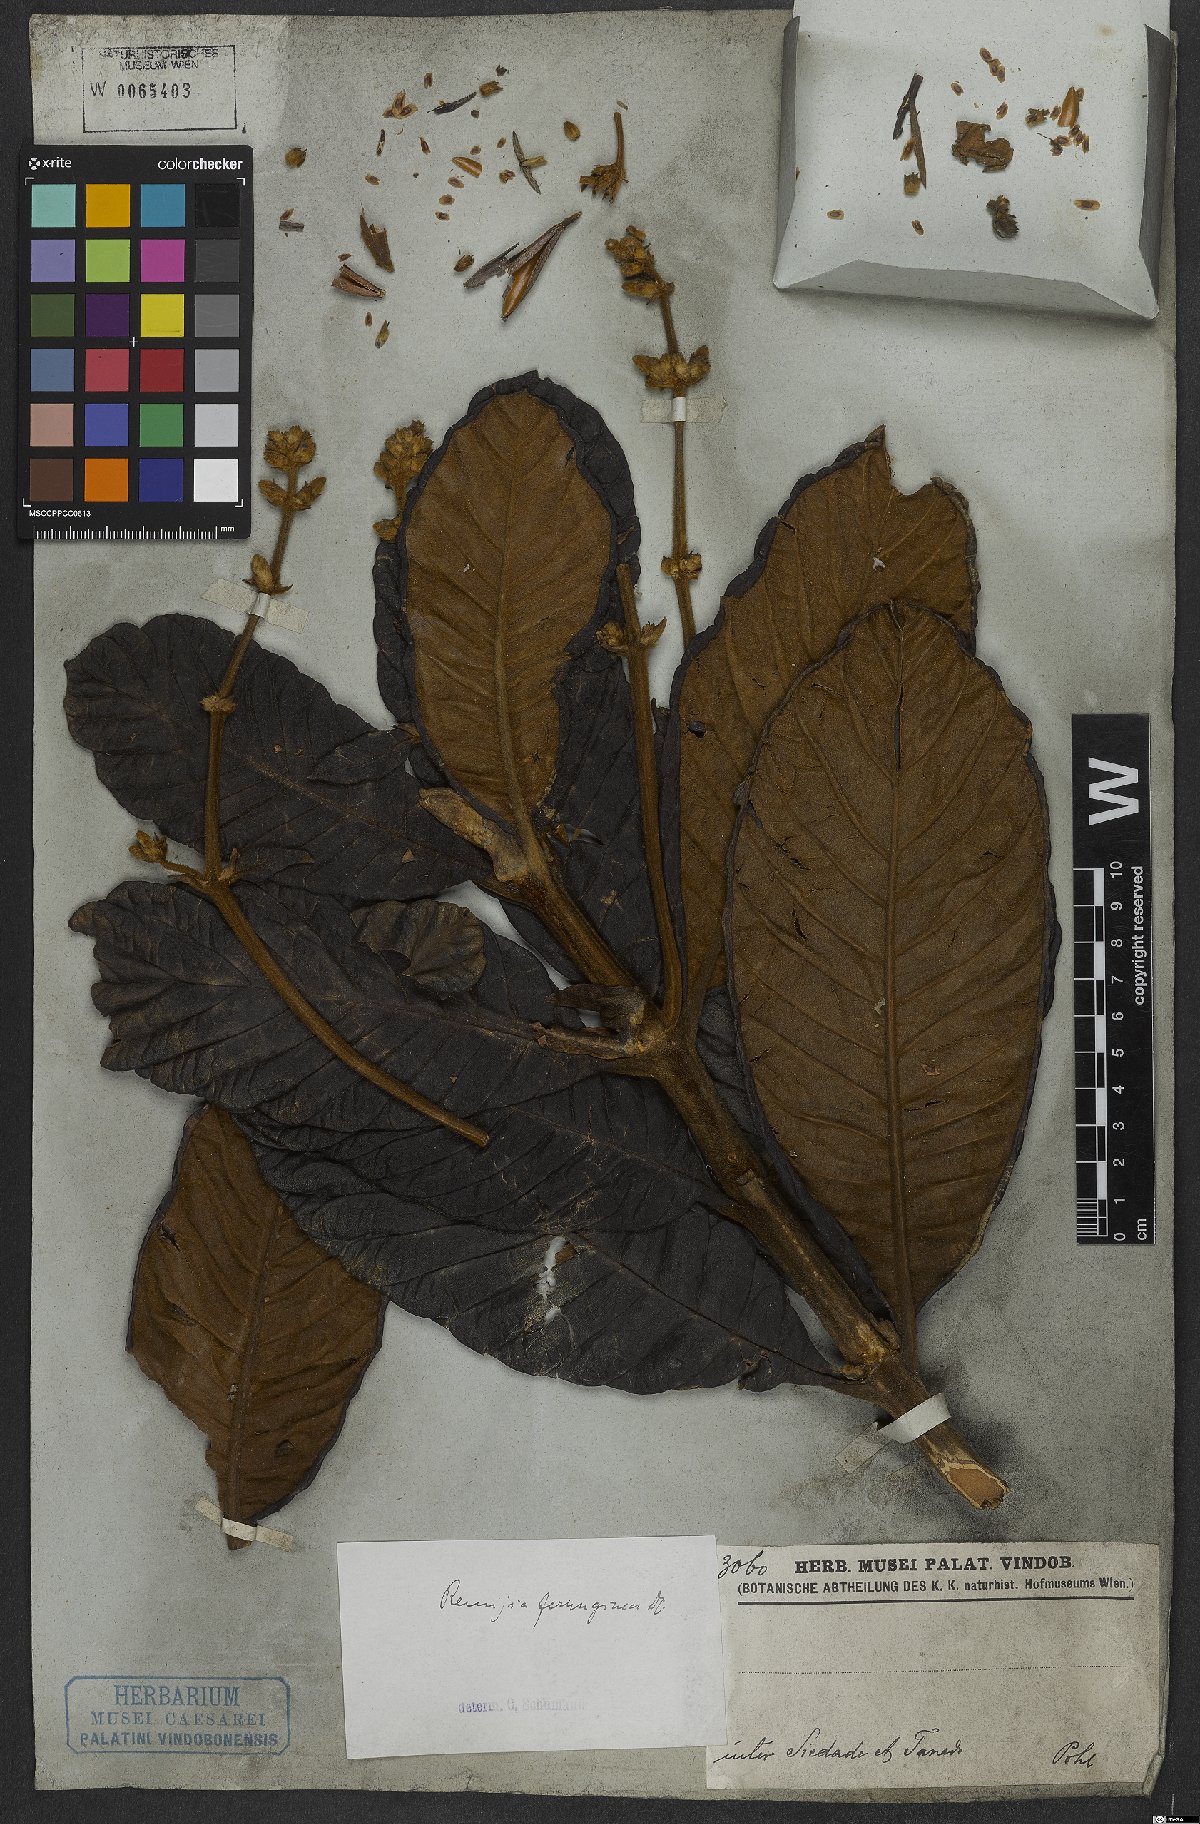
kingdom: Plantae
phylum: Tracheophyta
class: Magnoliopsida
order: Gentianales
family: Rubiaceae
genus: Remijia
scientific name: Remijia ferruginea
